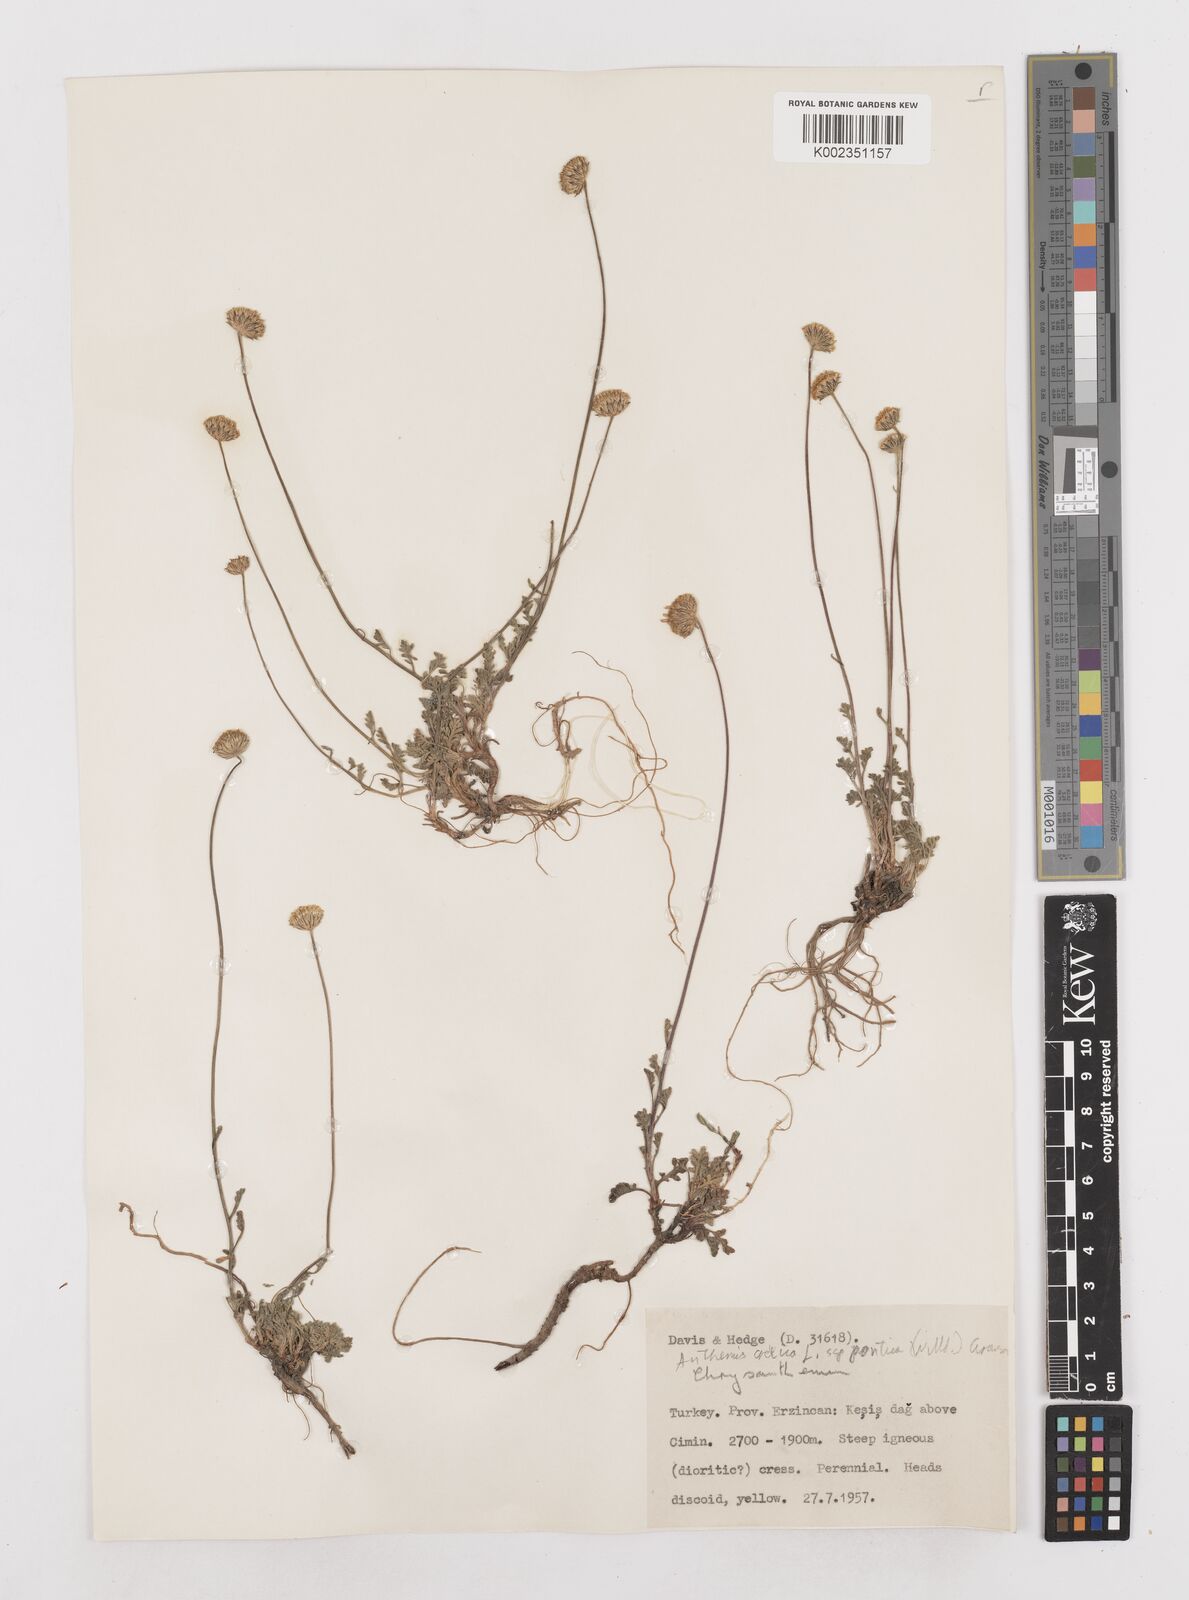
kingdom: Plantae
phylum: Tracheophyta
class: Magnoliopsida
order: Asterales
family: Asteraceae
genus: Anthemis
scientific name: Anthemis cretica
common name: Mountain dog-daisy
